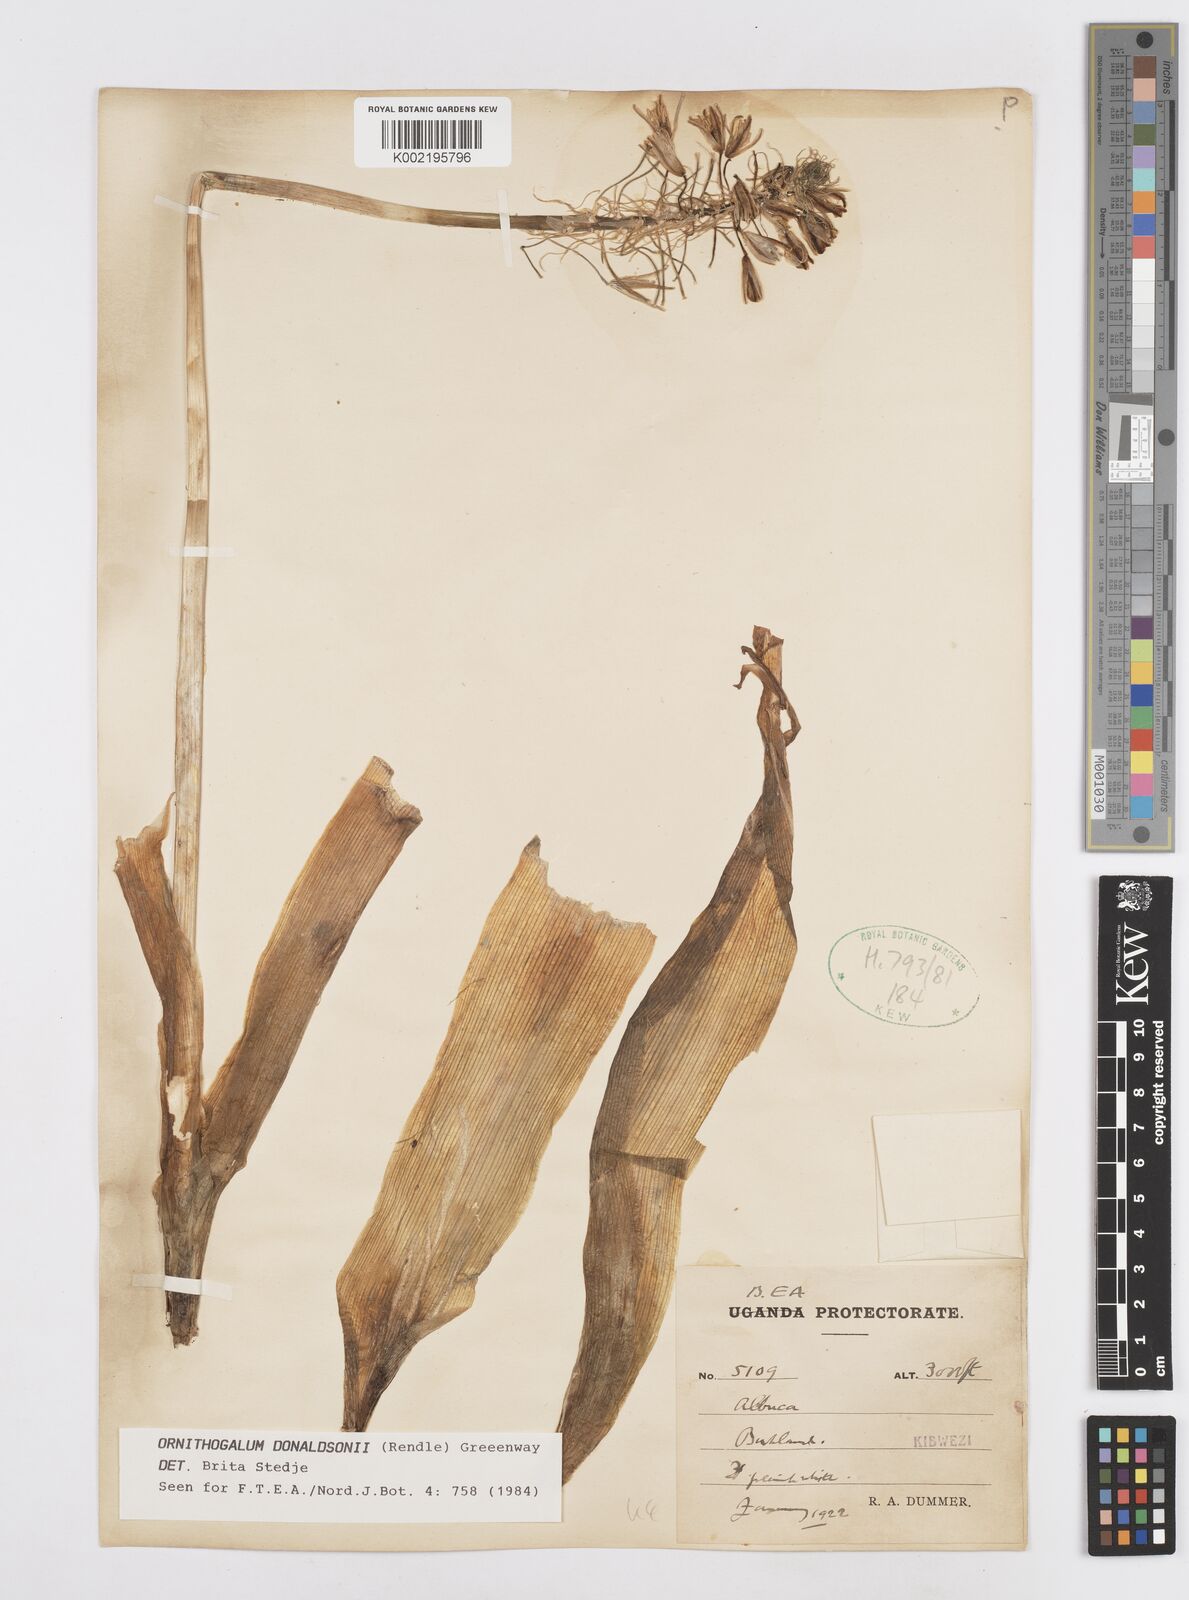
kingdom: Plantae
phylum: Tracheophyta
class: Liliopsida
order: Asparagales
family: Asparagaceae
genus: Albuca
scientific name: Albuca donaldsonii
